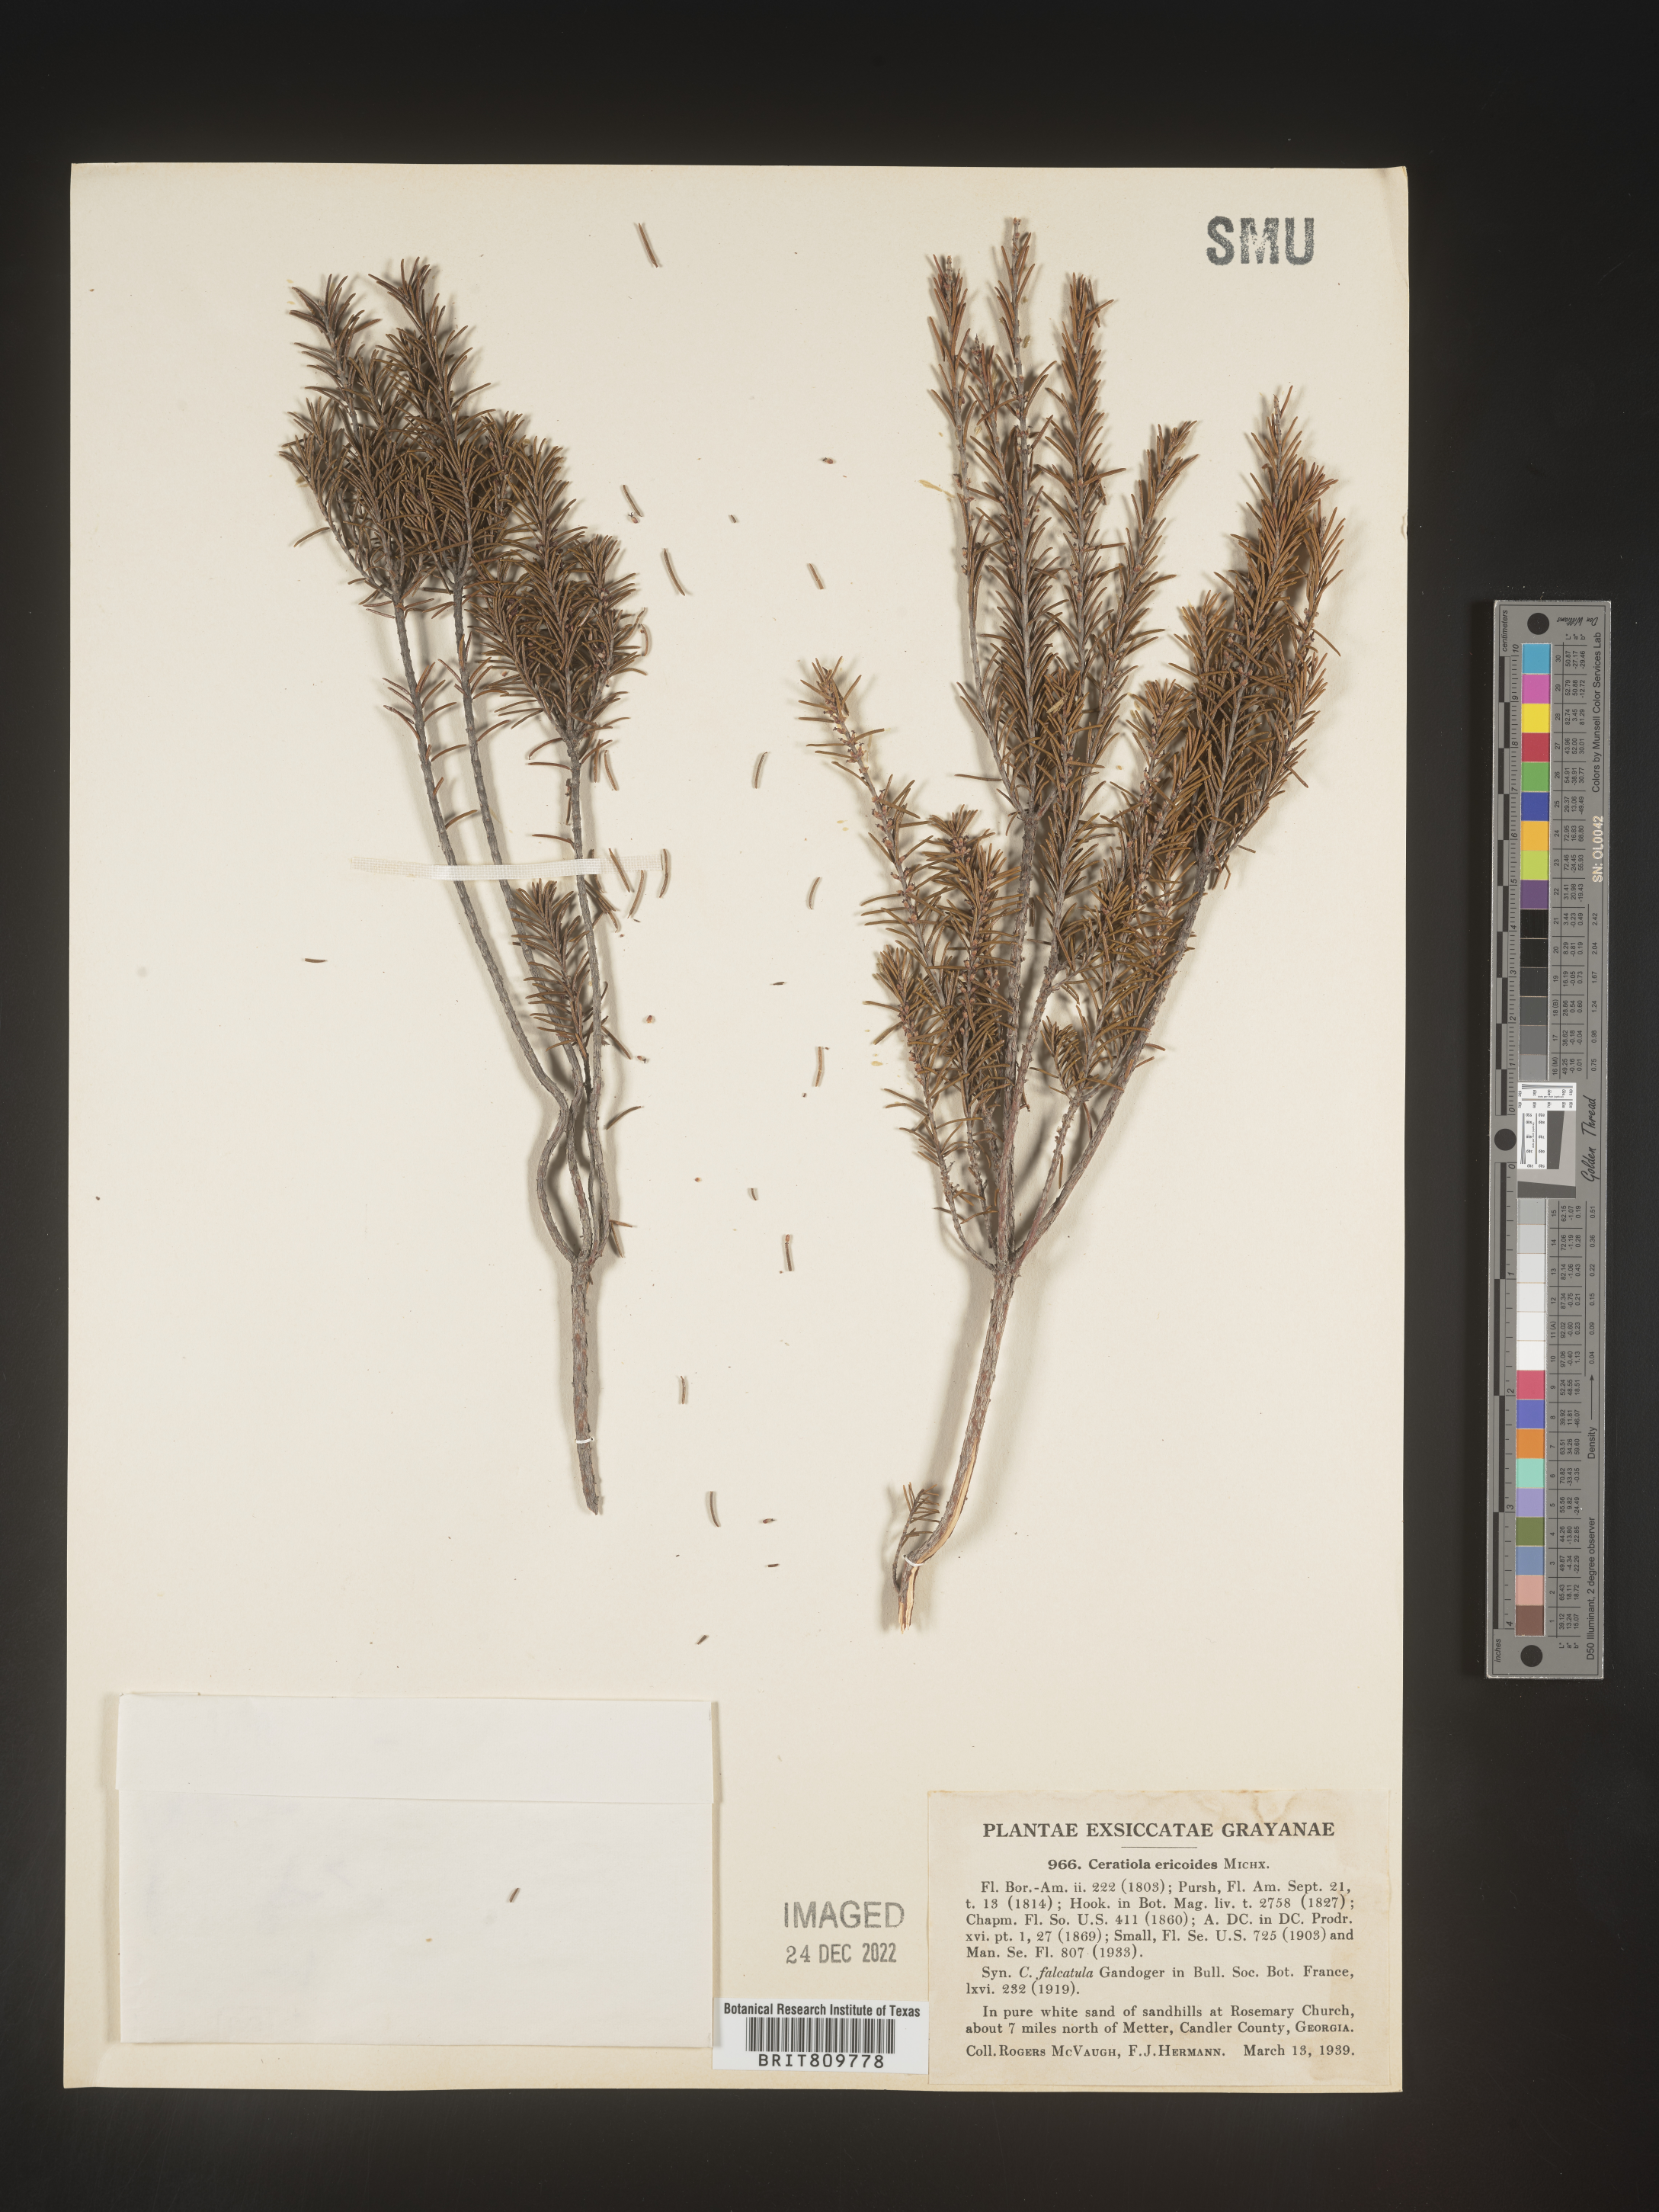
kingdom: Plantae
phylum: Tracheophyta
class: Magnoliopsida
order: Ericales
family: Ericaceae
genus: Ceratiola
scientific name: Ceratiola ericoides
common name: Sandhill-rosemary
